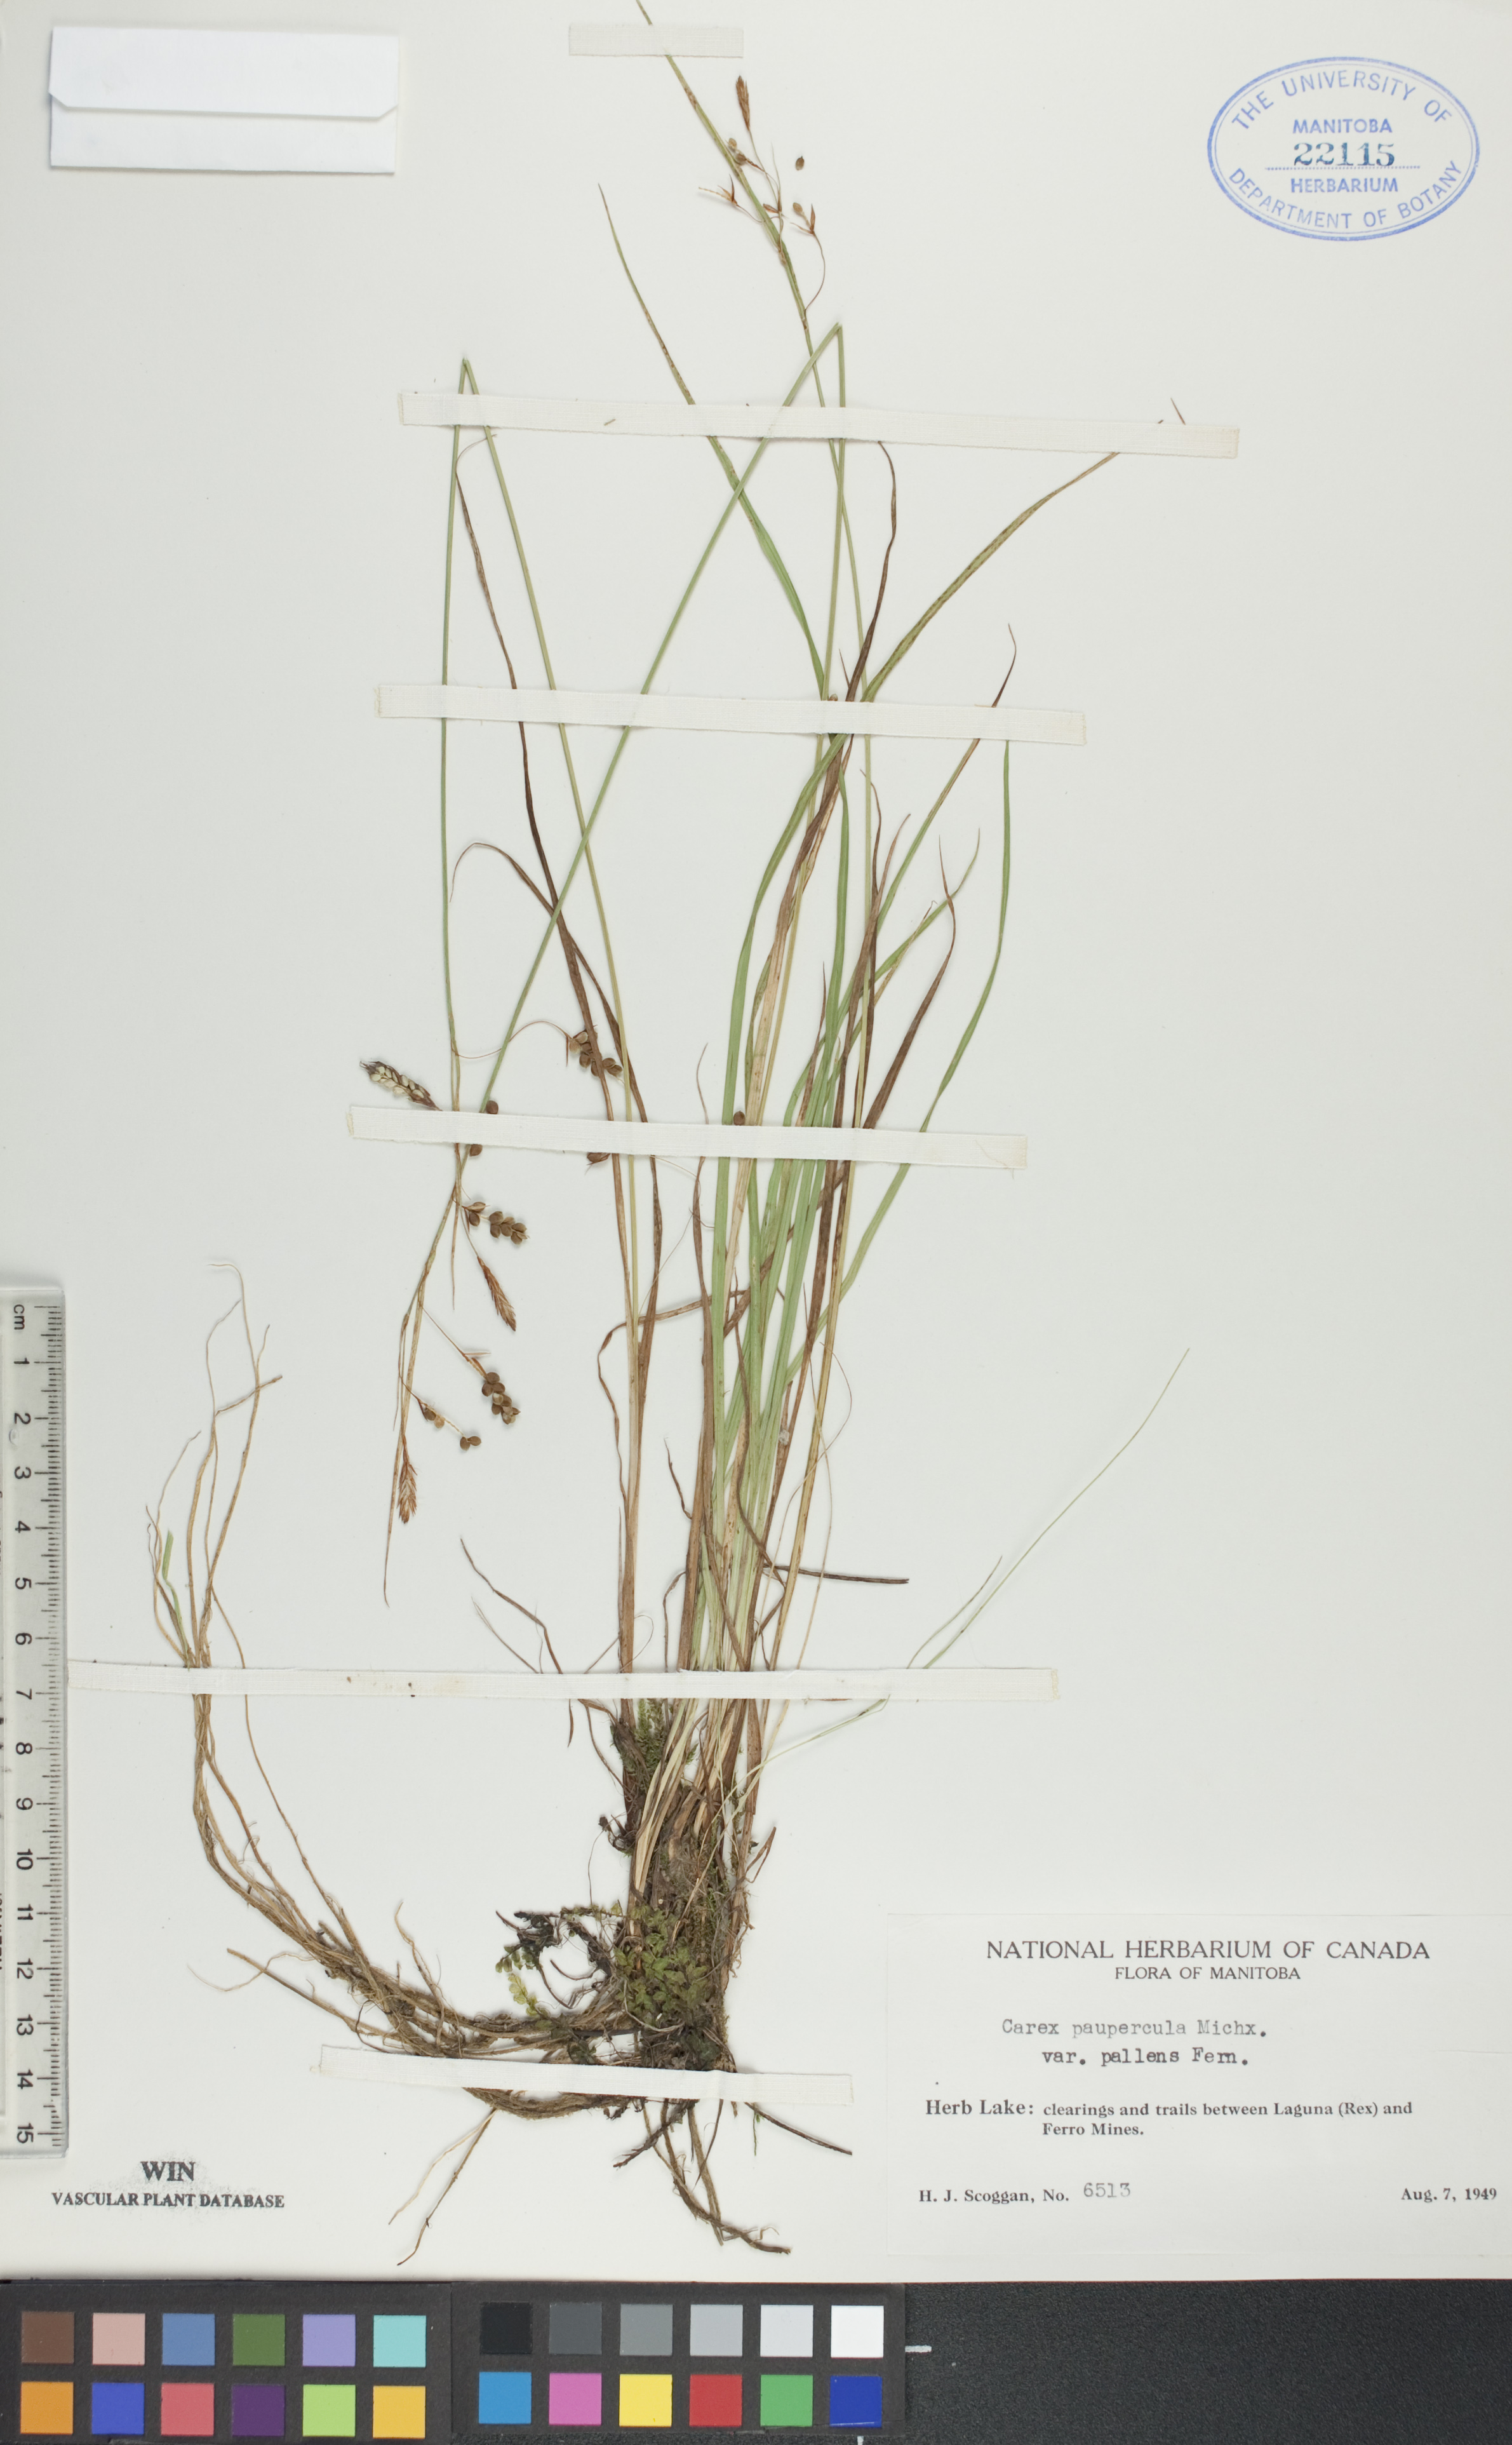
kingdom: Plantae
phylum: Tracheophyta
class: Liliopsida
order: Poales
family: Cyperaceae
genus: Carex
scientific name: Carex magellanica
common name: Bog sedge
